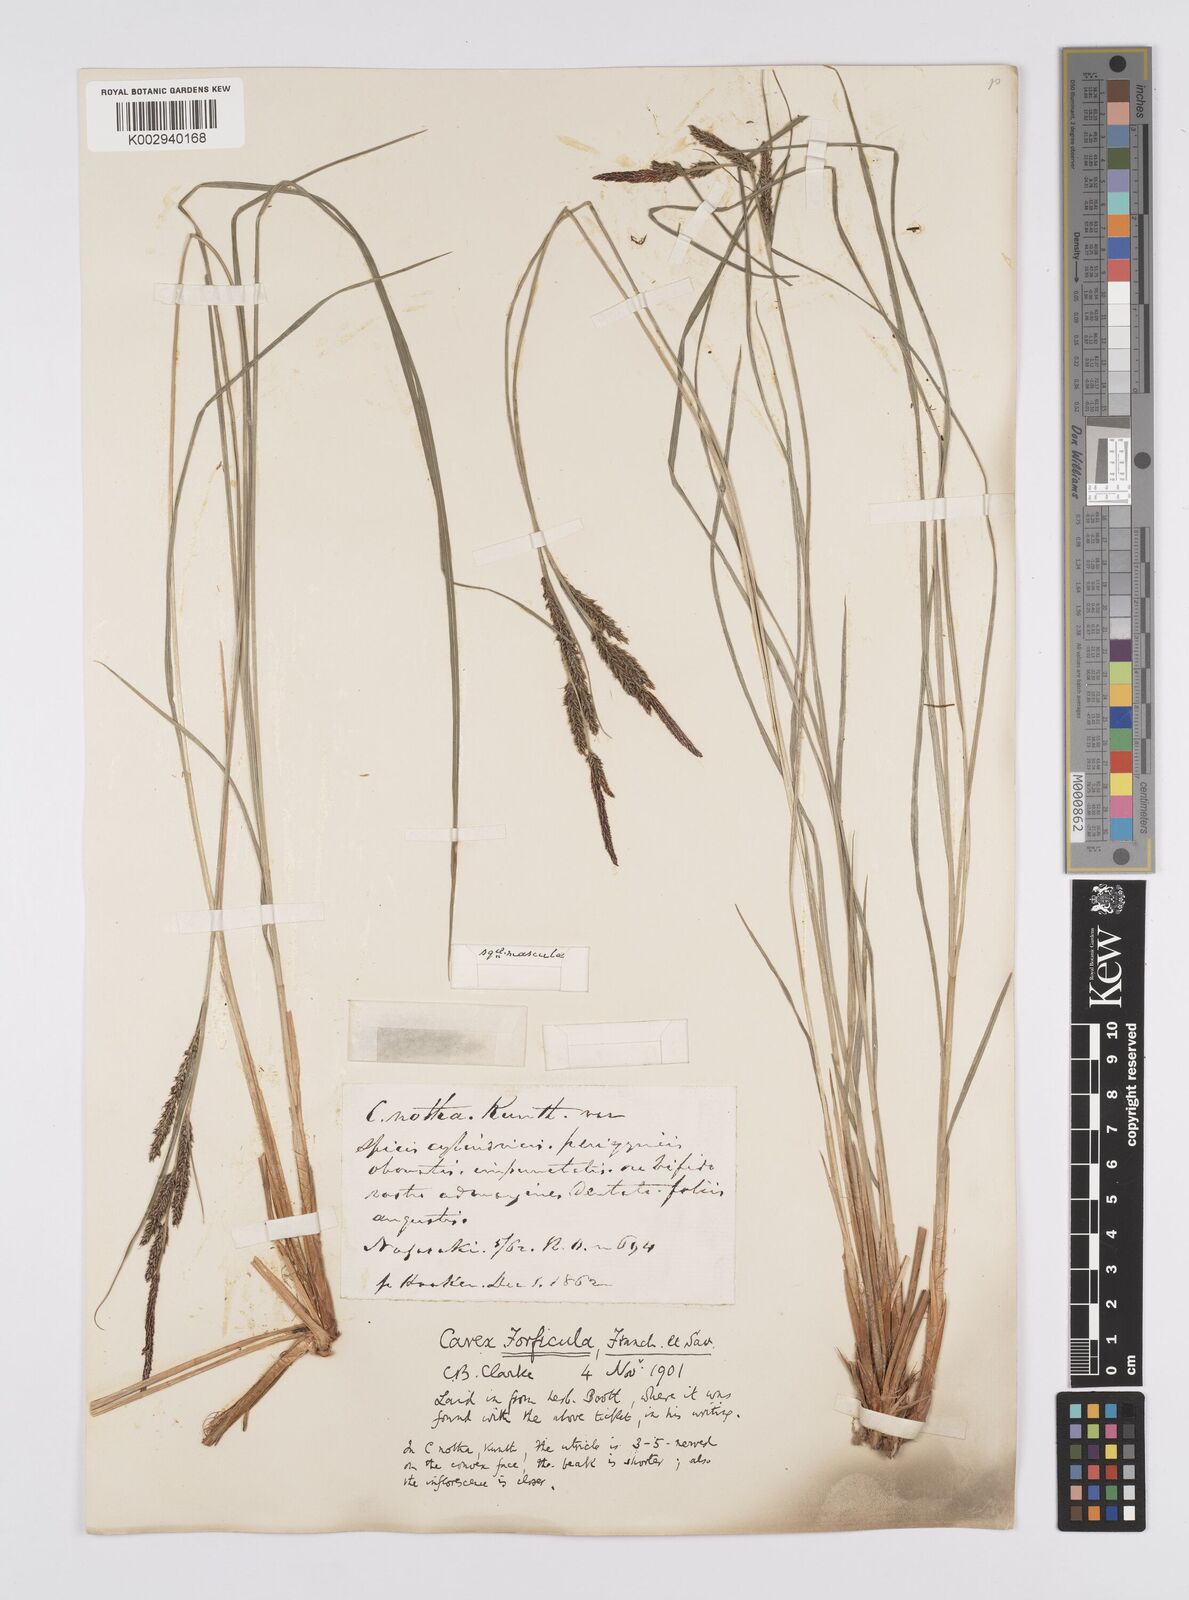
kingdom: Plantae
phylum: Tracheophyta
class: Liliopsida
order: Poales
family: Cyperaceae
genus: Carex
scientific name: Carex forficula
